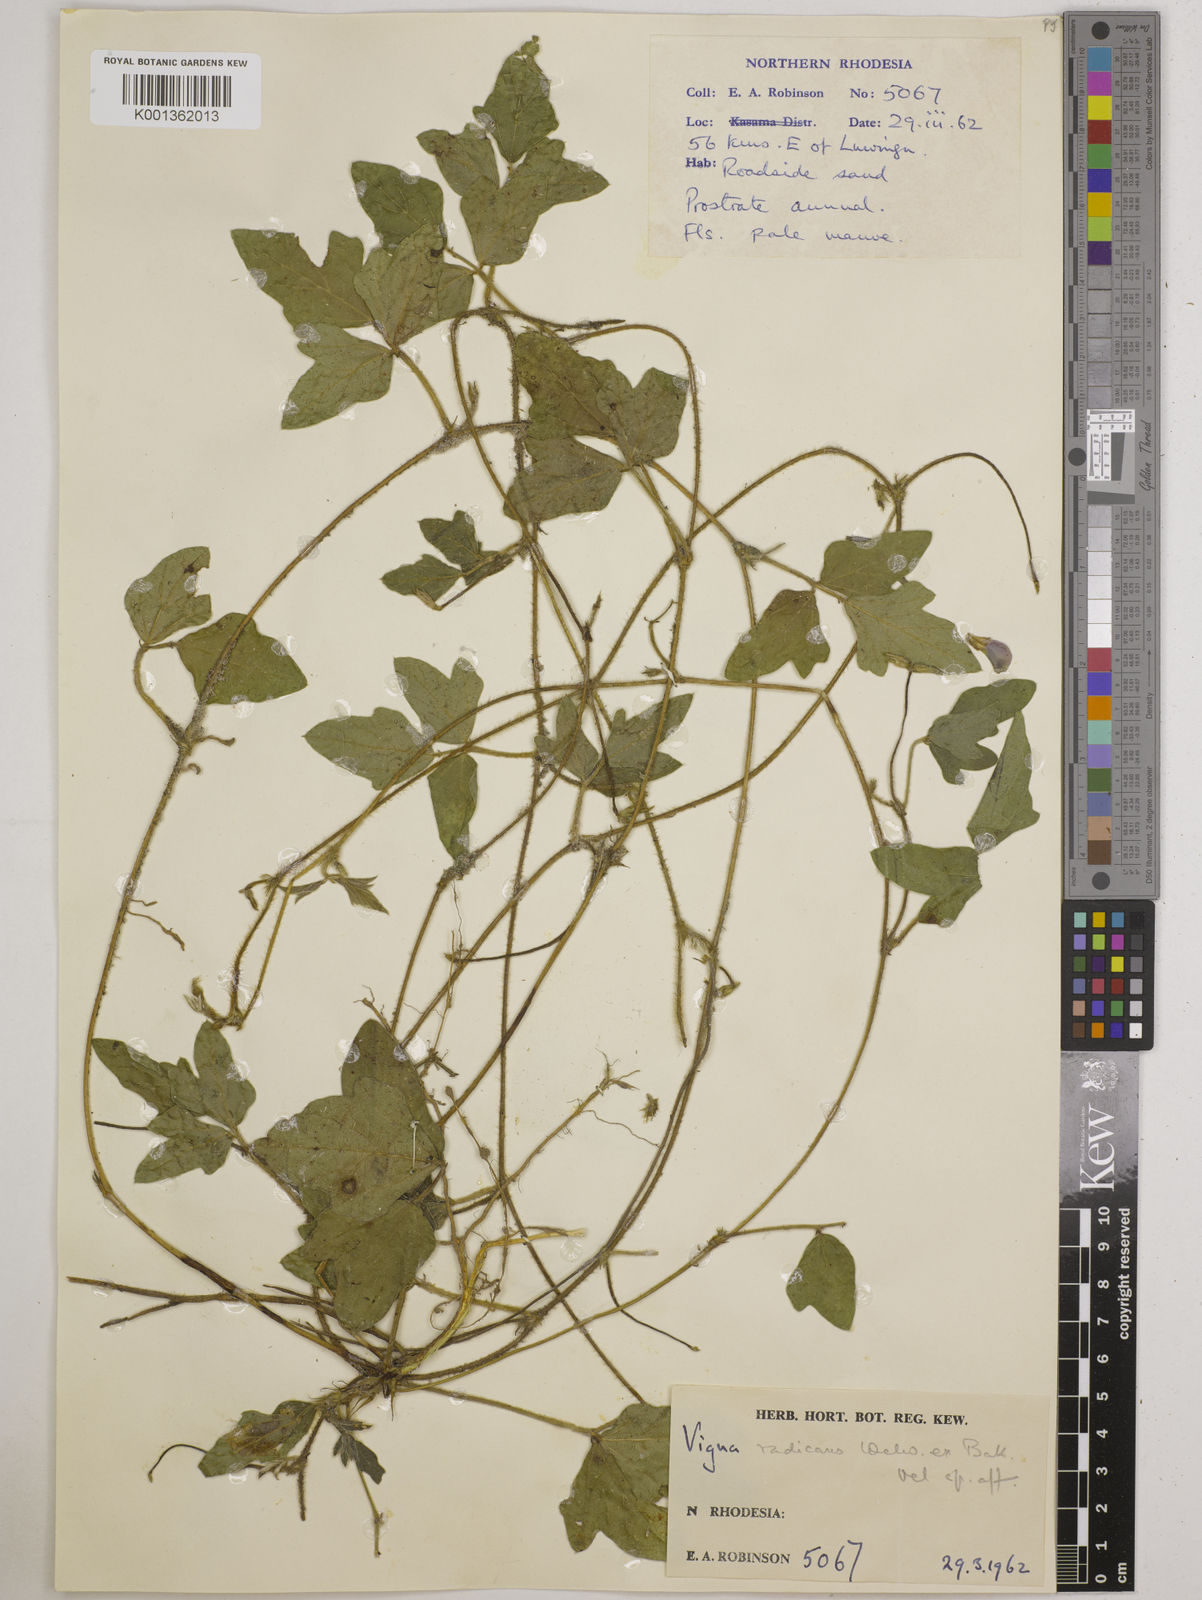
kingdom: Plantae
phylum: Tracheophyta
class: Magnoliopsida
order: Fabales
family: Fabaceae
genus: Vigna
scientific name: Vigna radicans
